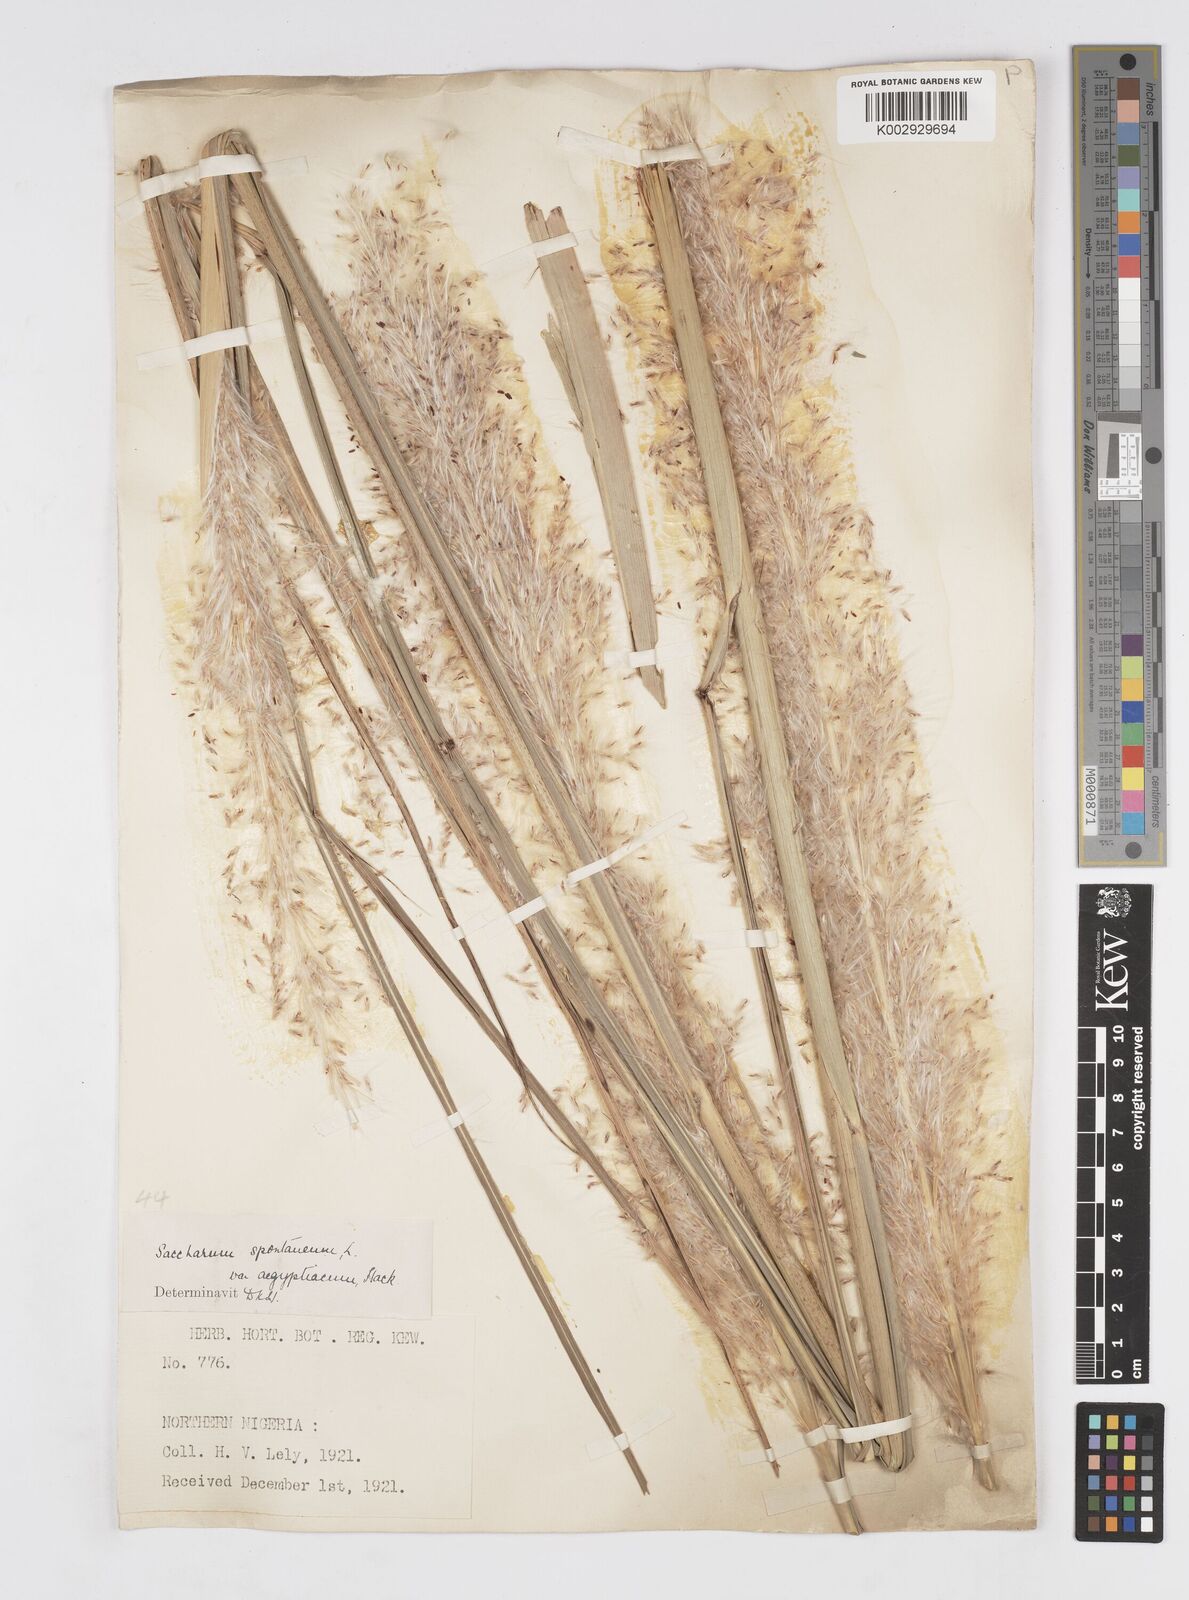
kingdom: Plantae
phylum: Tracheophyta
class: Liliopsida
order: Poales
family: Poaceae
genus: Saccharum
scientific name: Saccharum spontaneum
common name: Wild sugarcane
